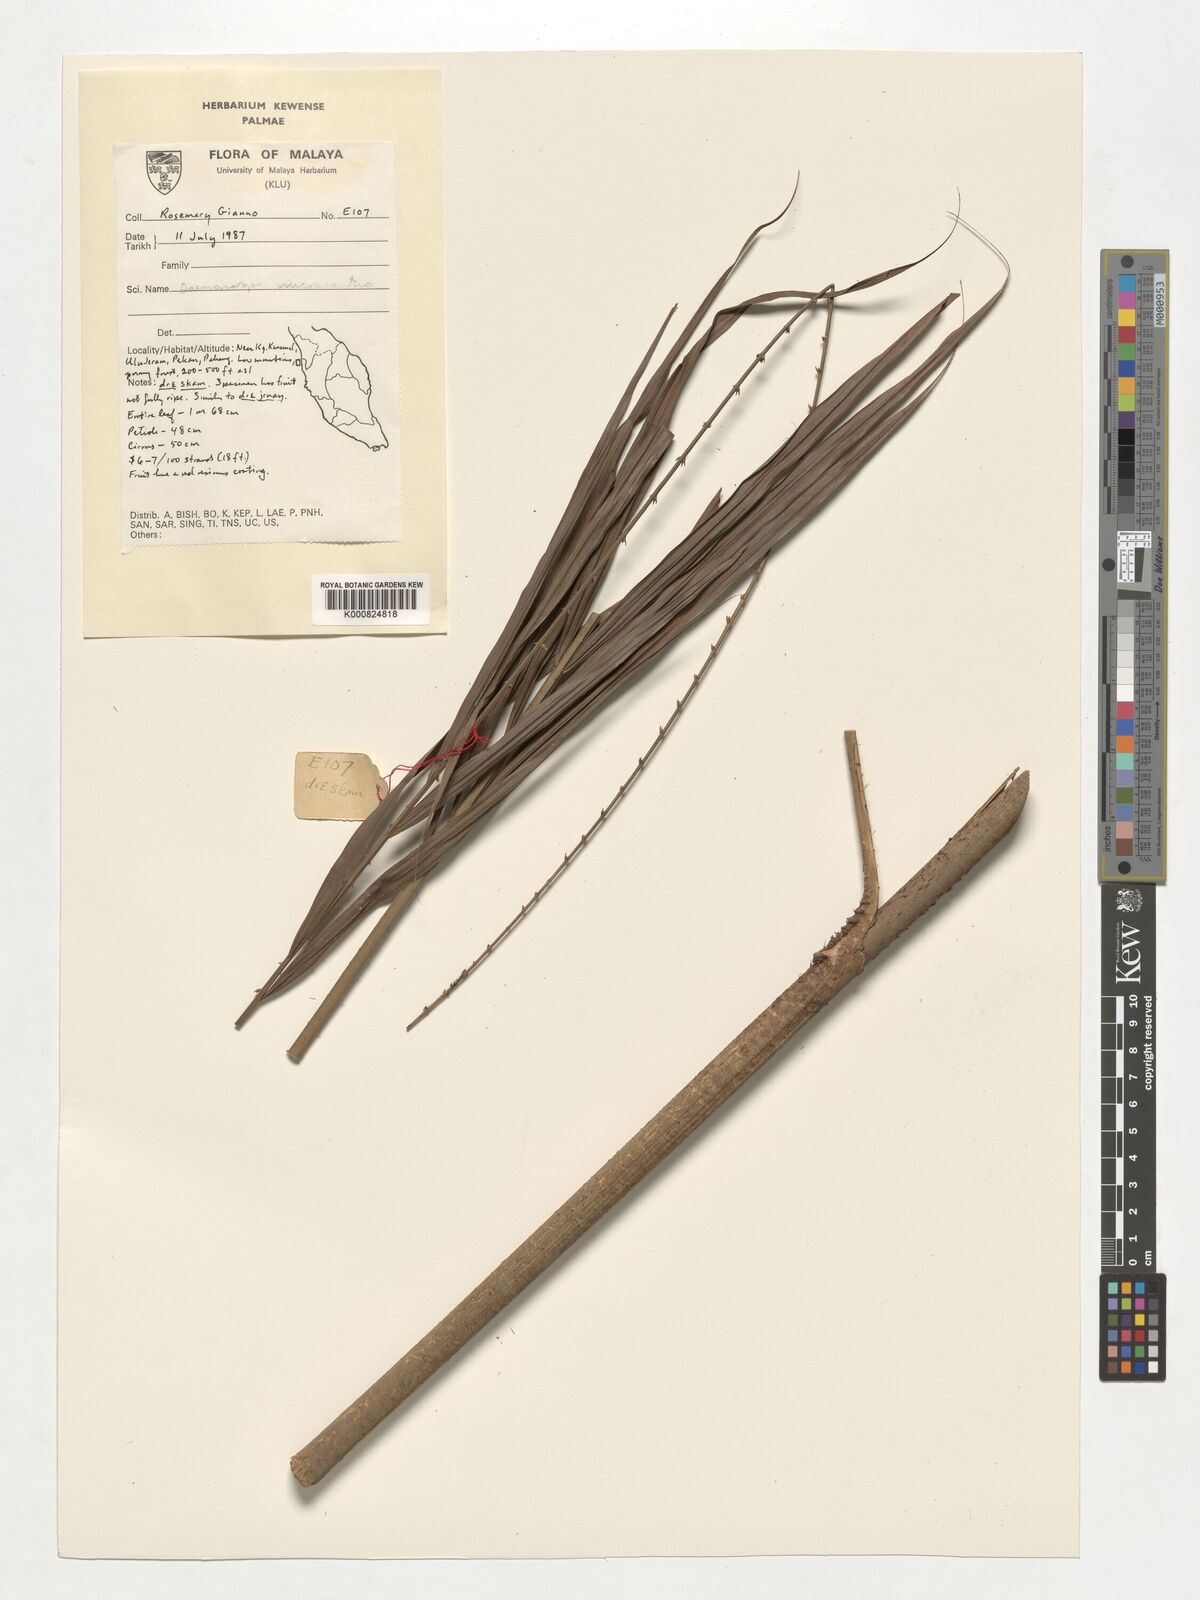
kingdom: Plantae
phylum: Tracheophyta
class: Liliopsida
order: Arecales
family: Arecaceae
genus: Calamus
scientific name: Calamus micracanthus
